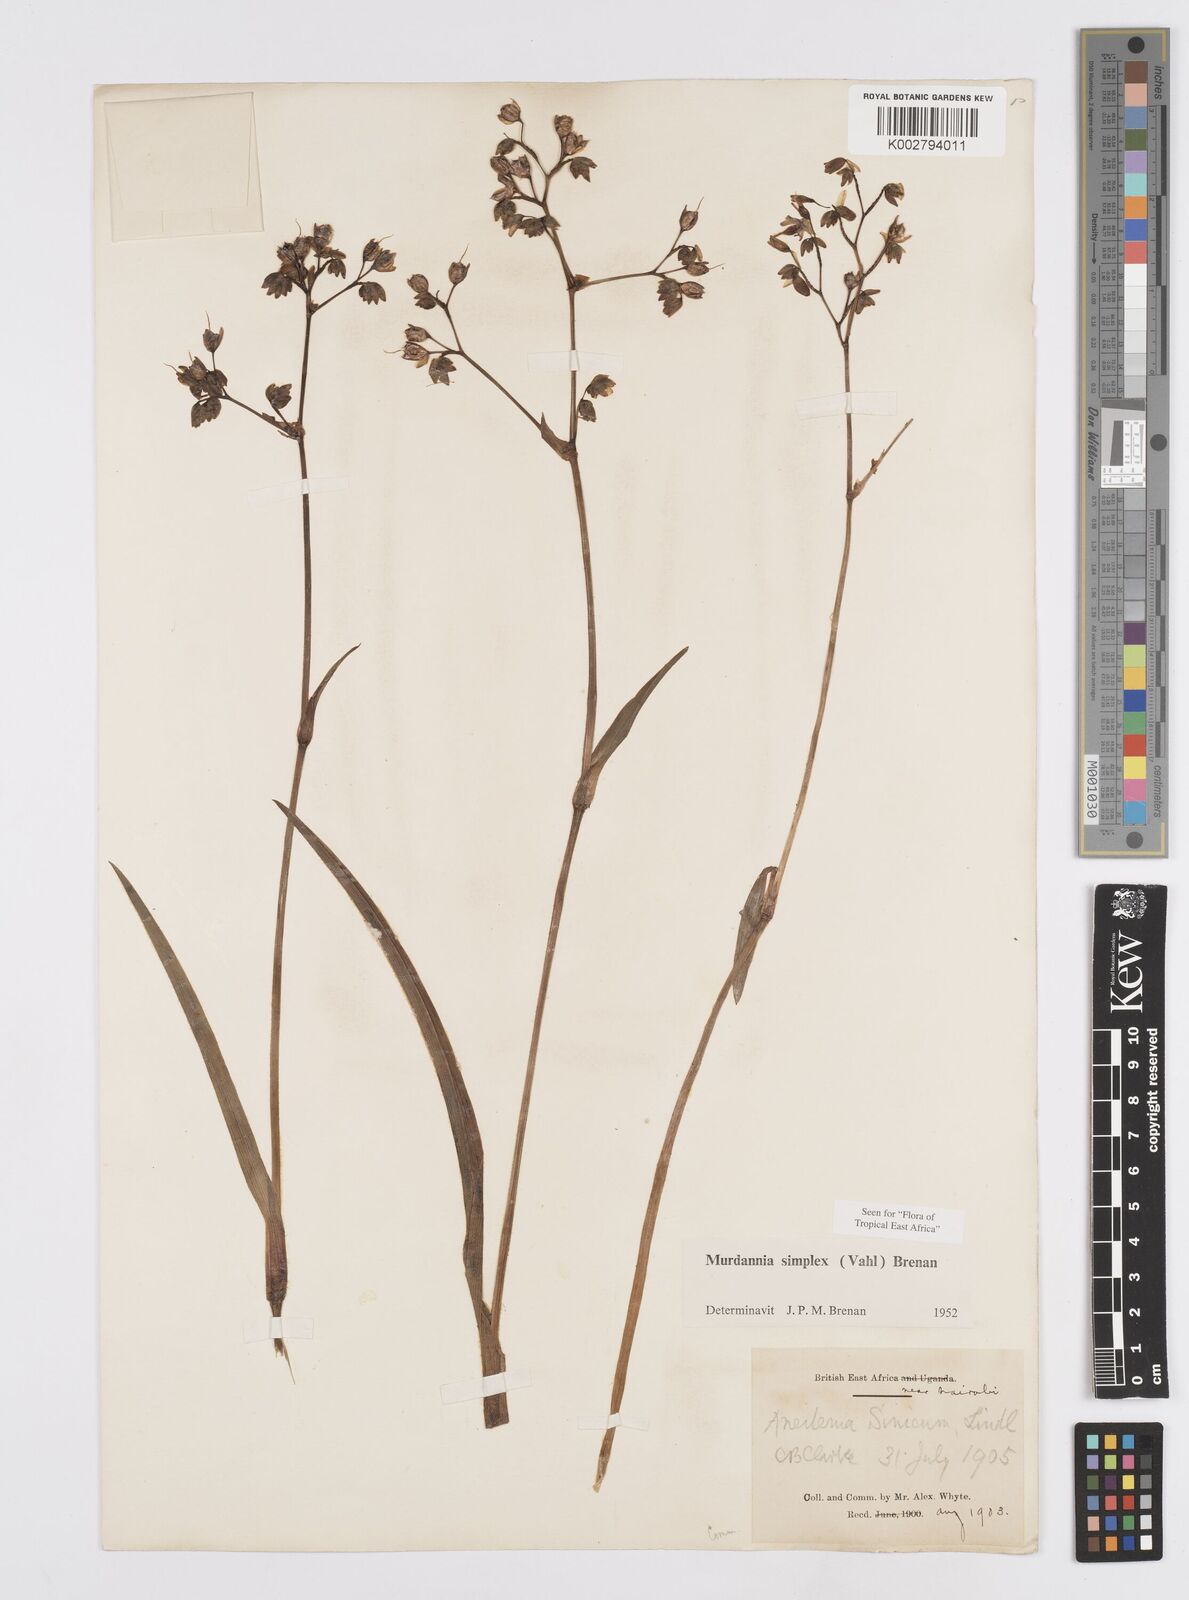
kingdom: Plantae
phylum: Tracheophyta
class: Liliopsida
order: Commelinales
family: Commelinaceae
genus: Murdannia
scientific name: Murdannia simplex
